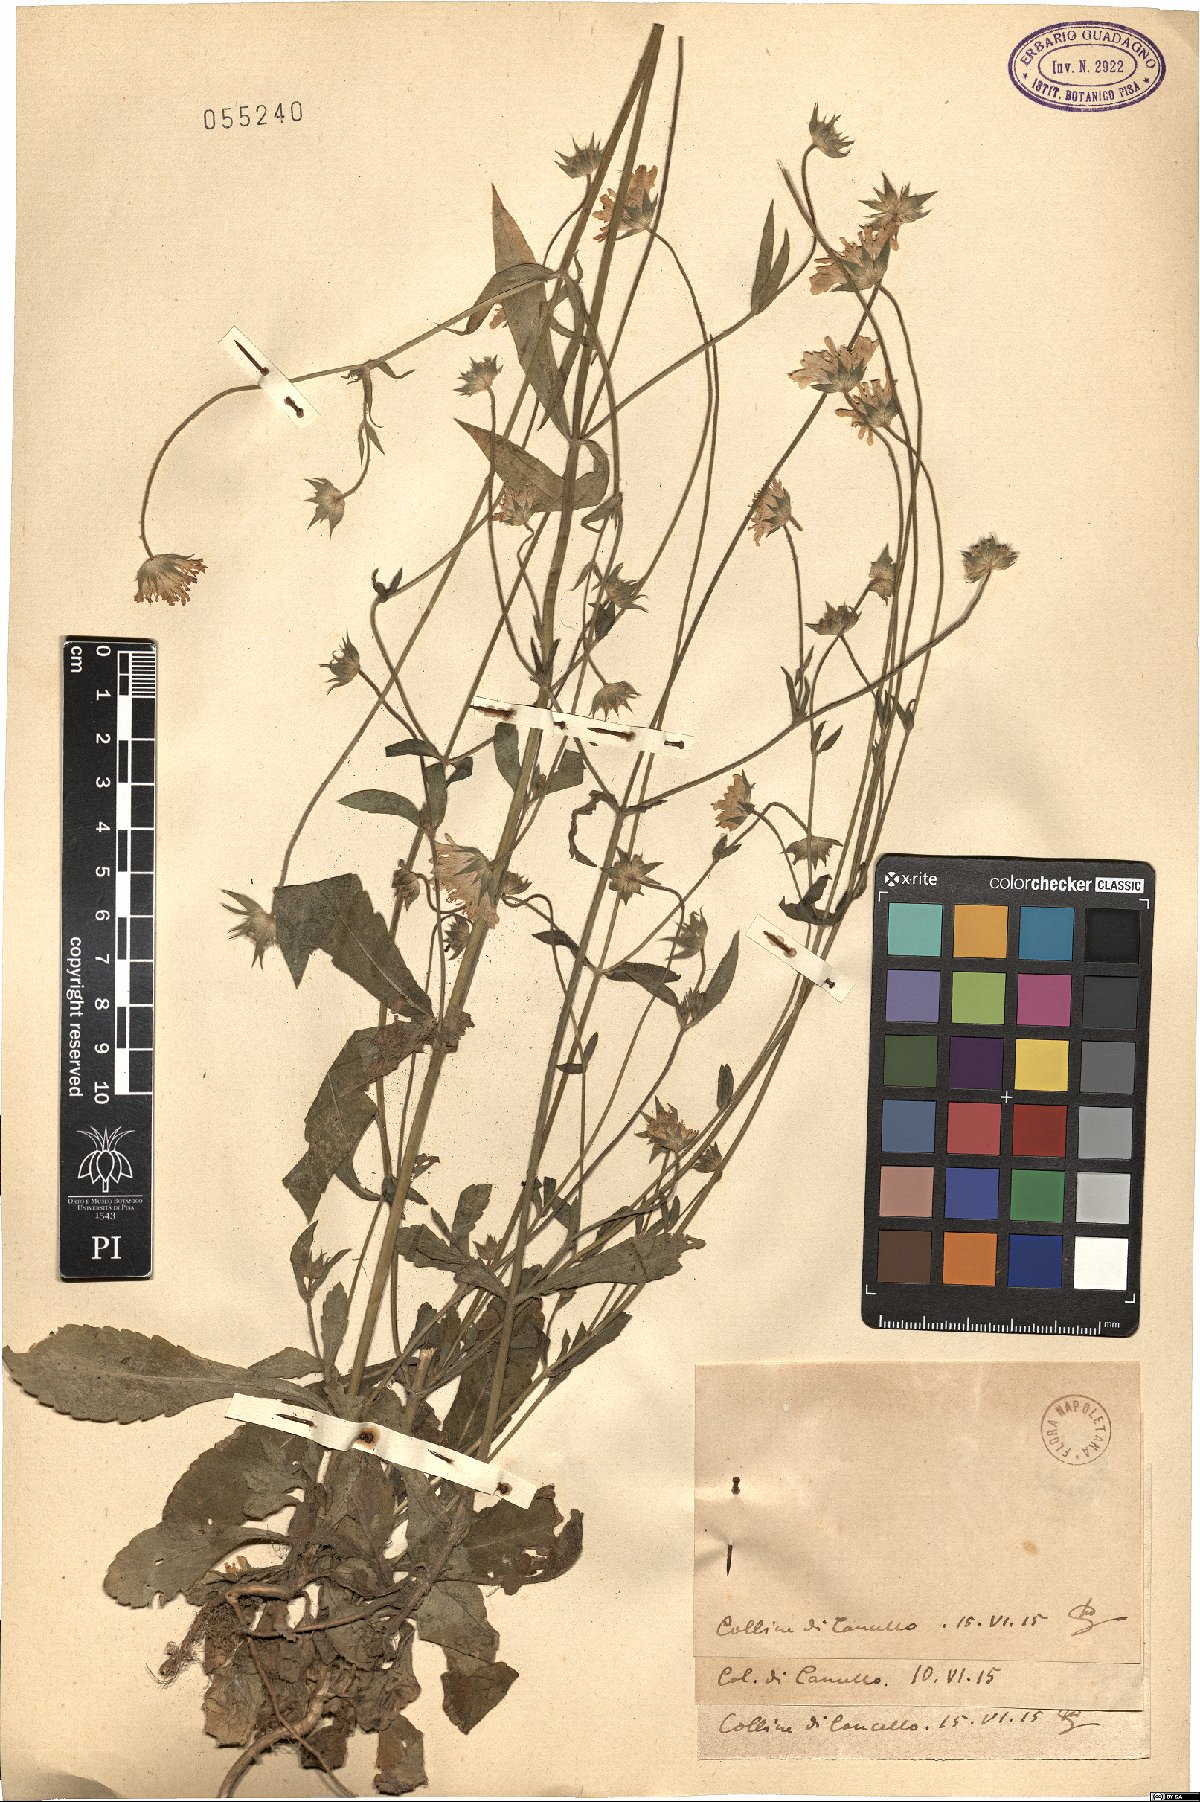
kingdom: Plantae
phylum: Tracheophyta
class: Magnoliopsida
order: Dipsacales
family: Caprifoliaceae
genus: Knautia
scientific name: Knautia
